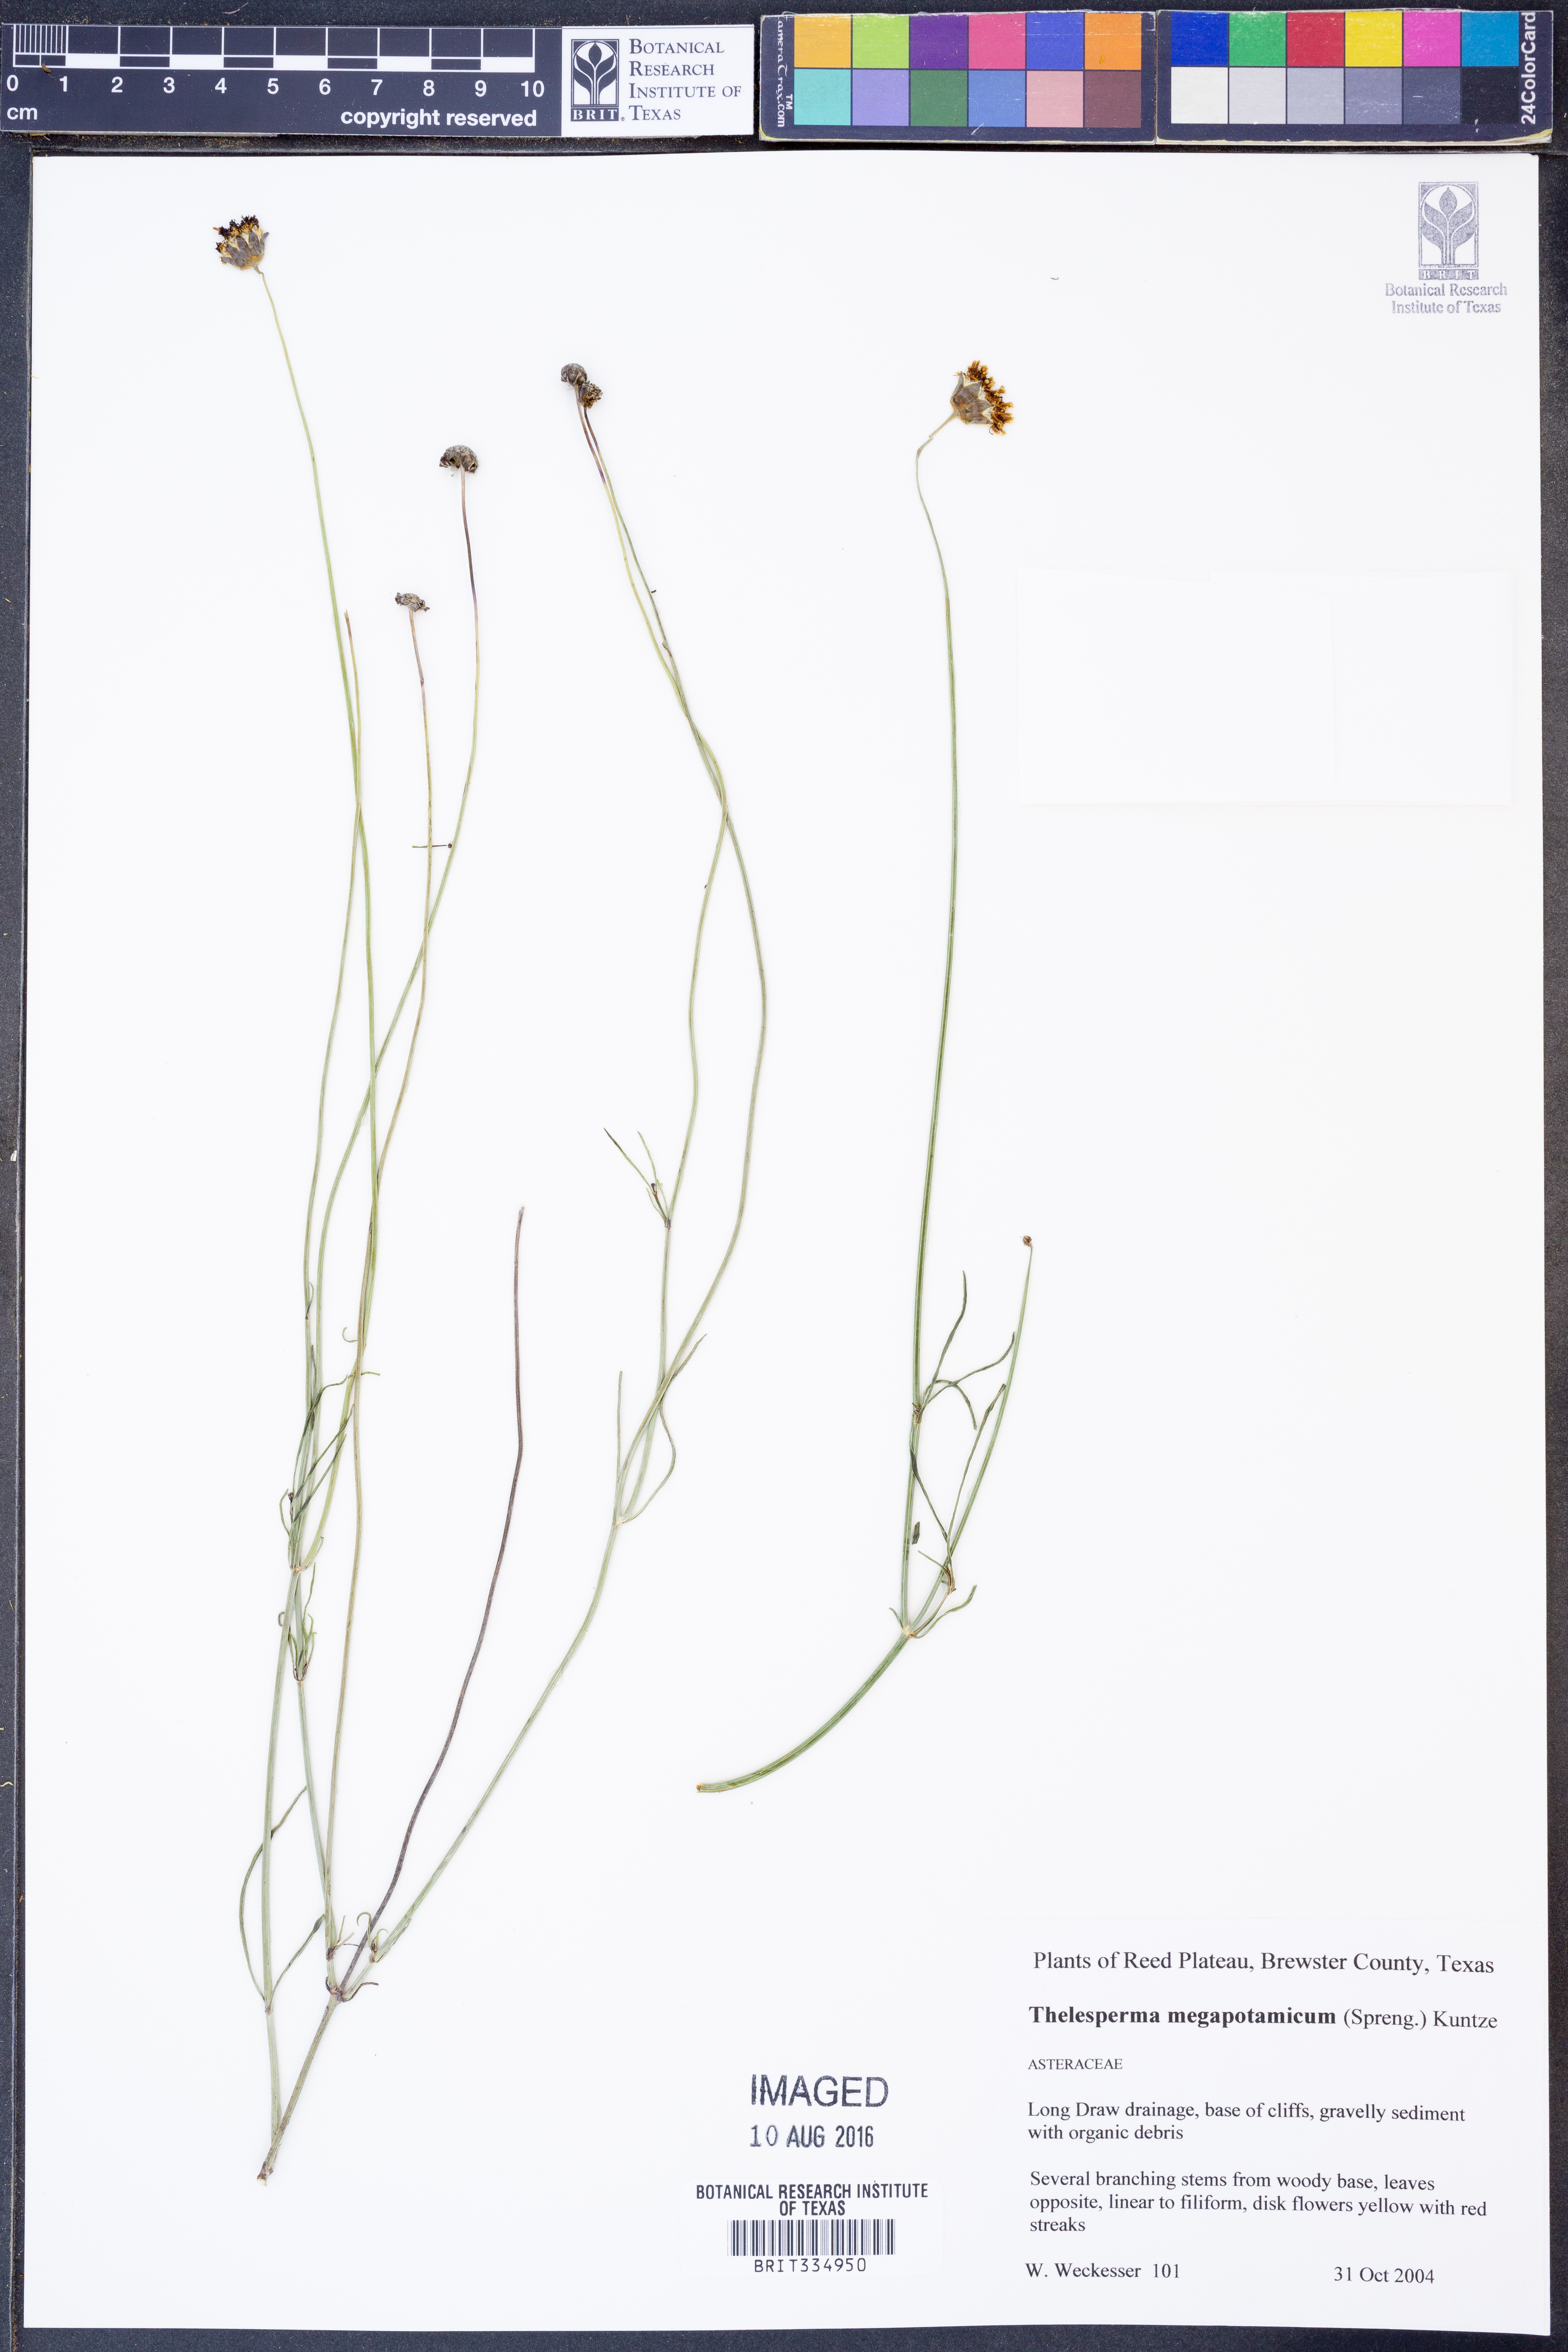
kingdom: Plantae
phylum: Tracheophyta
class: Magnoliopsida
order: Asterales
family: Asteraceae
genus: Thelesperma
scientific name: Thelesperma megapotamicum
